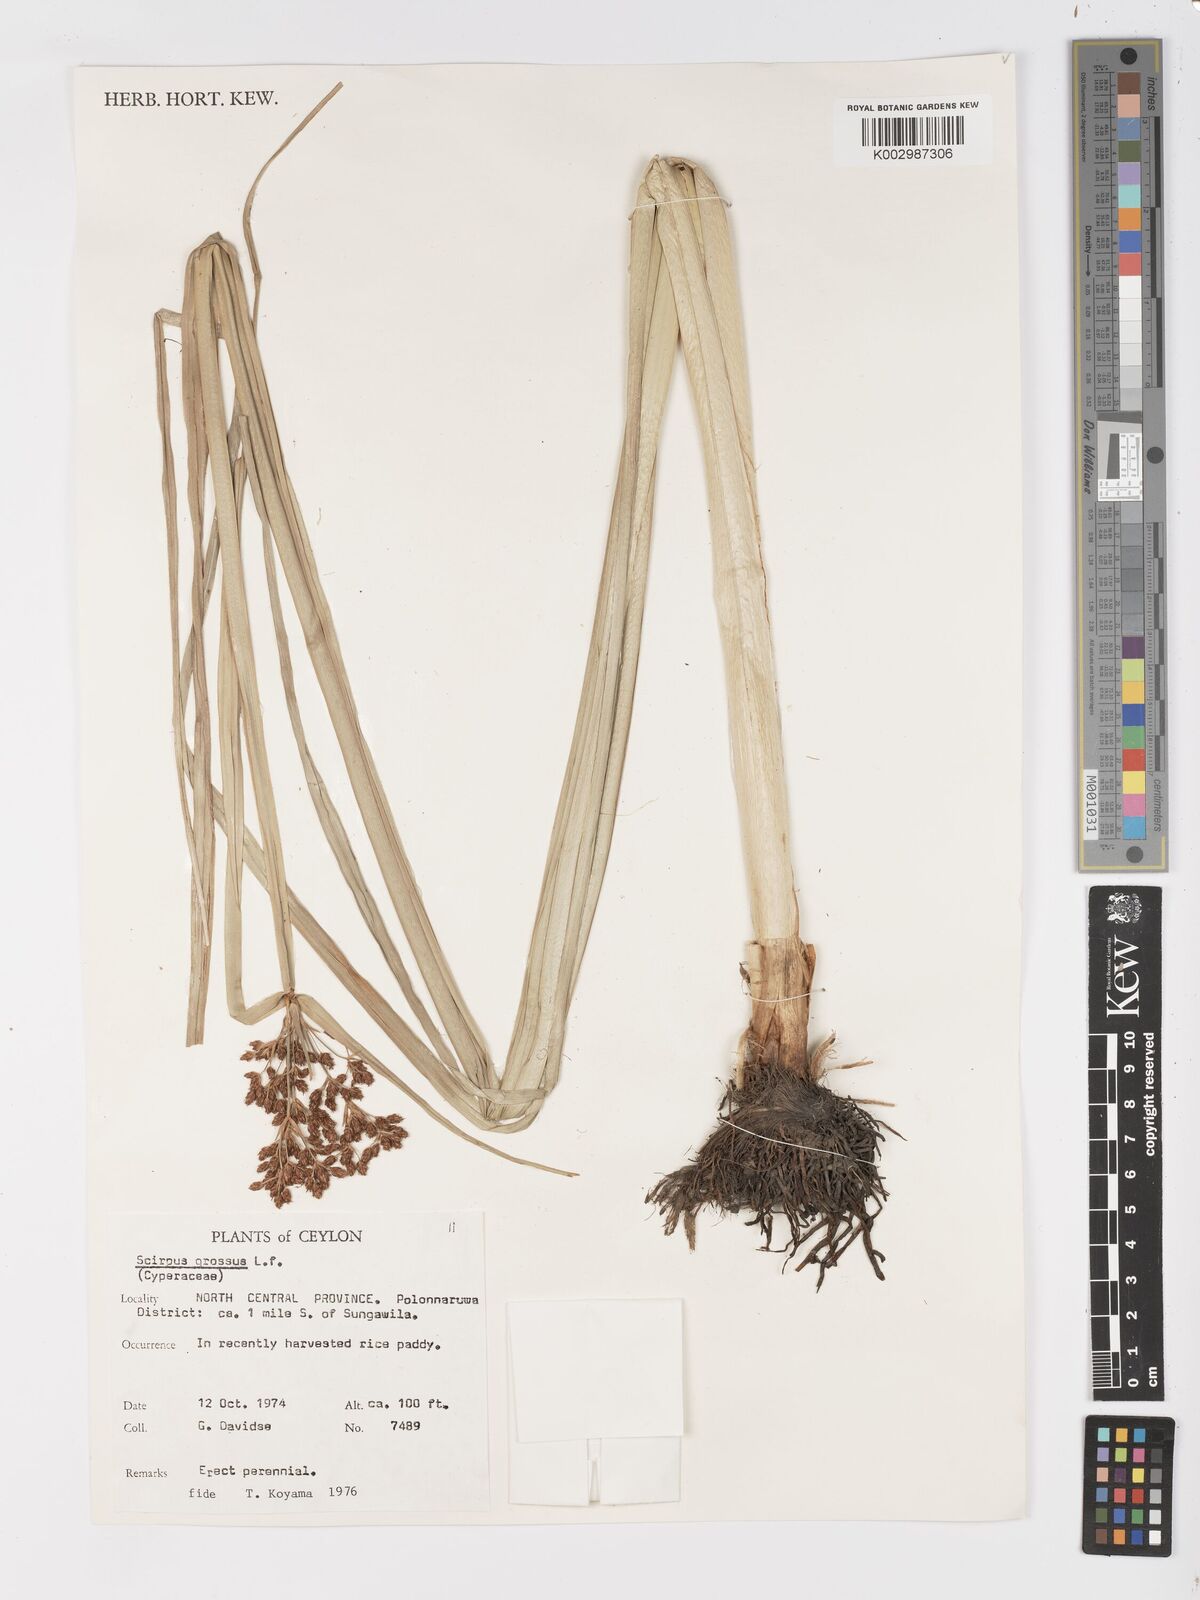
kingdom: Plantae
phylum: Tracheophyta
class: Liliopsida
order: Poales
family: Cyperaceae
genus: Actinoscirpus
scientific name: Actinoscirpus grossus
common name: Giant bur rush
